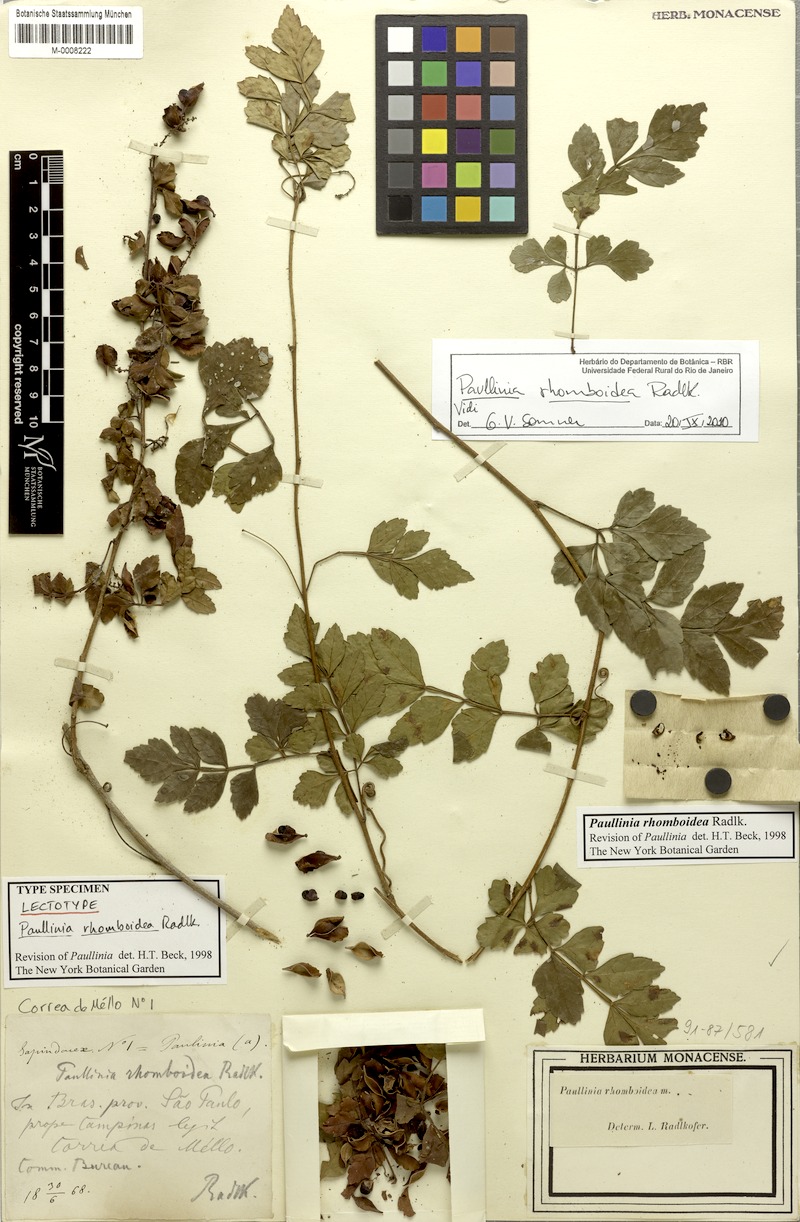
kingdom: Plantae
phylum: Tracheophyta
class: Magnoliopsida
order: Sapindales
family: Sapindaceae
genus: Paullinia
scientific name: Paullinia rhomboidea
